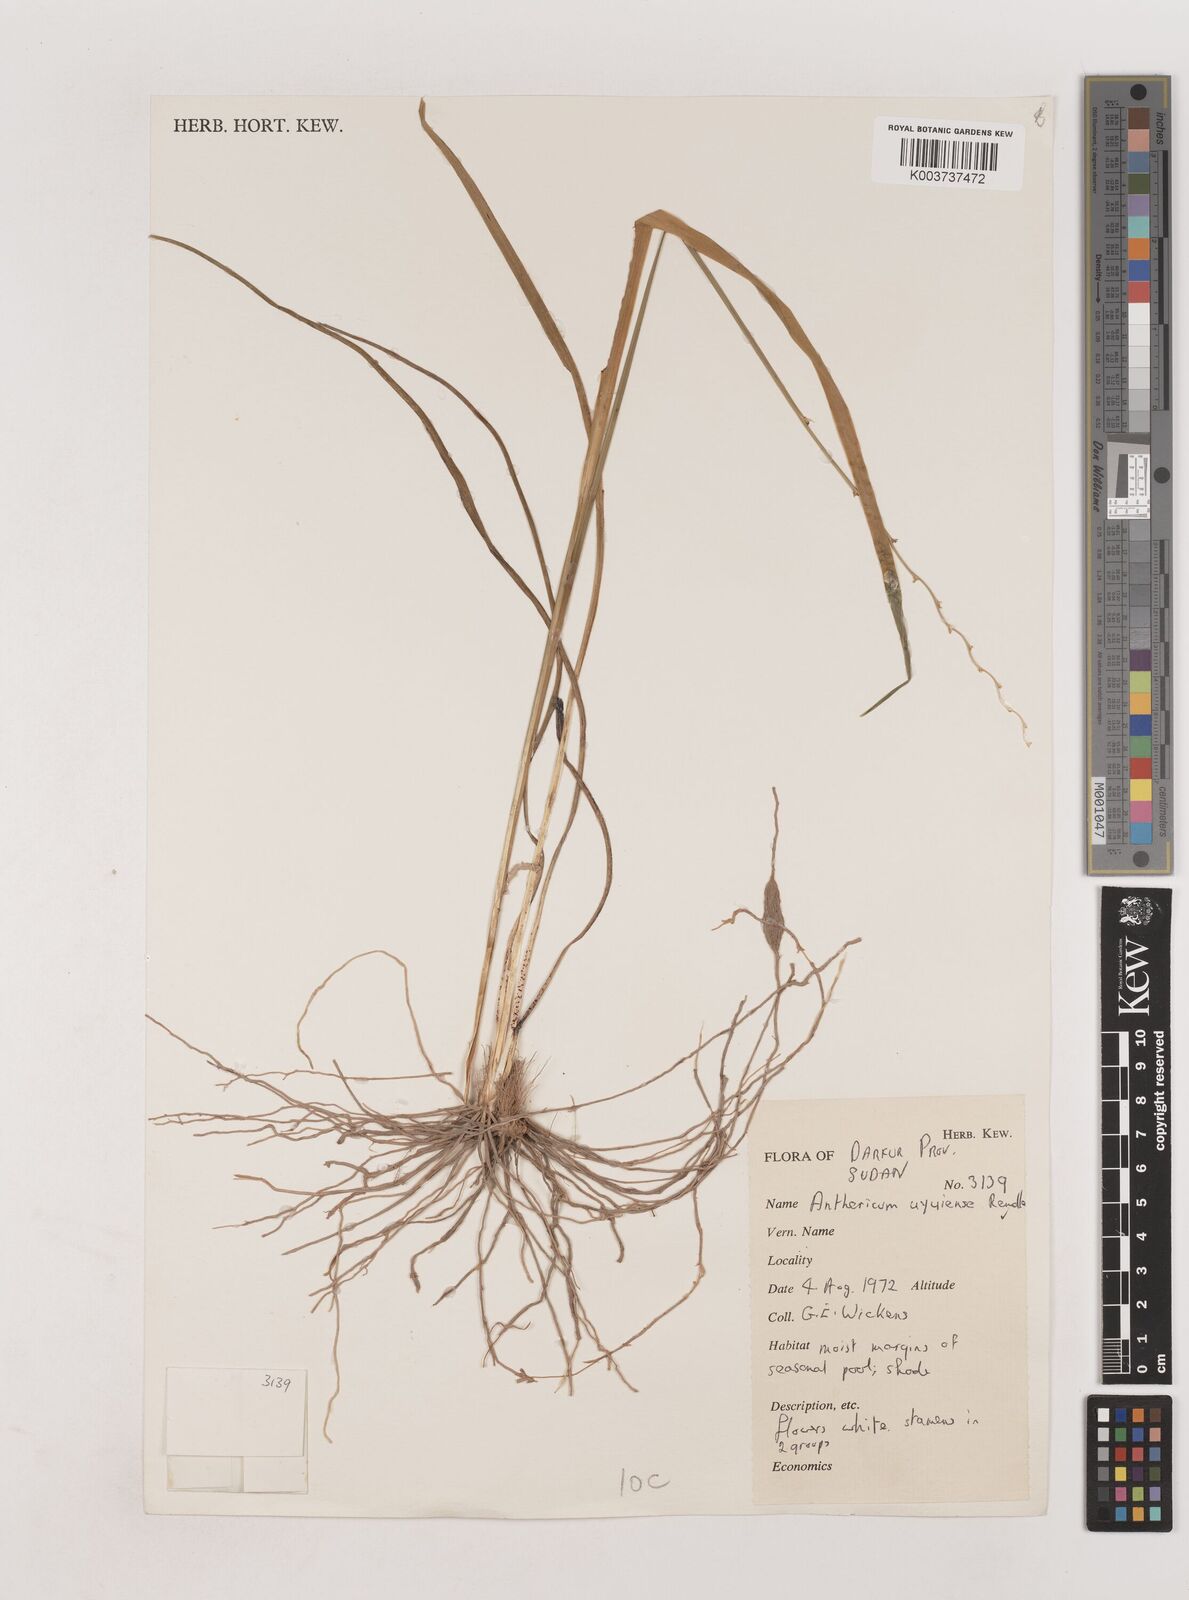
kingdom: Plantae
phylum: Tracheophyta
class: Liliopsida
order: Asparagales
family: Asparagaceae
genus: Chlorophytum
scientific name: Chlorophytum cameronii
